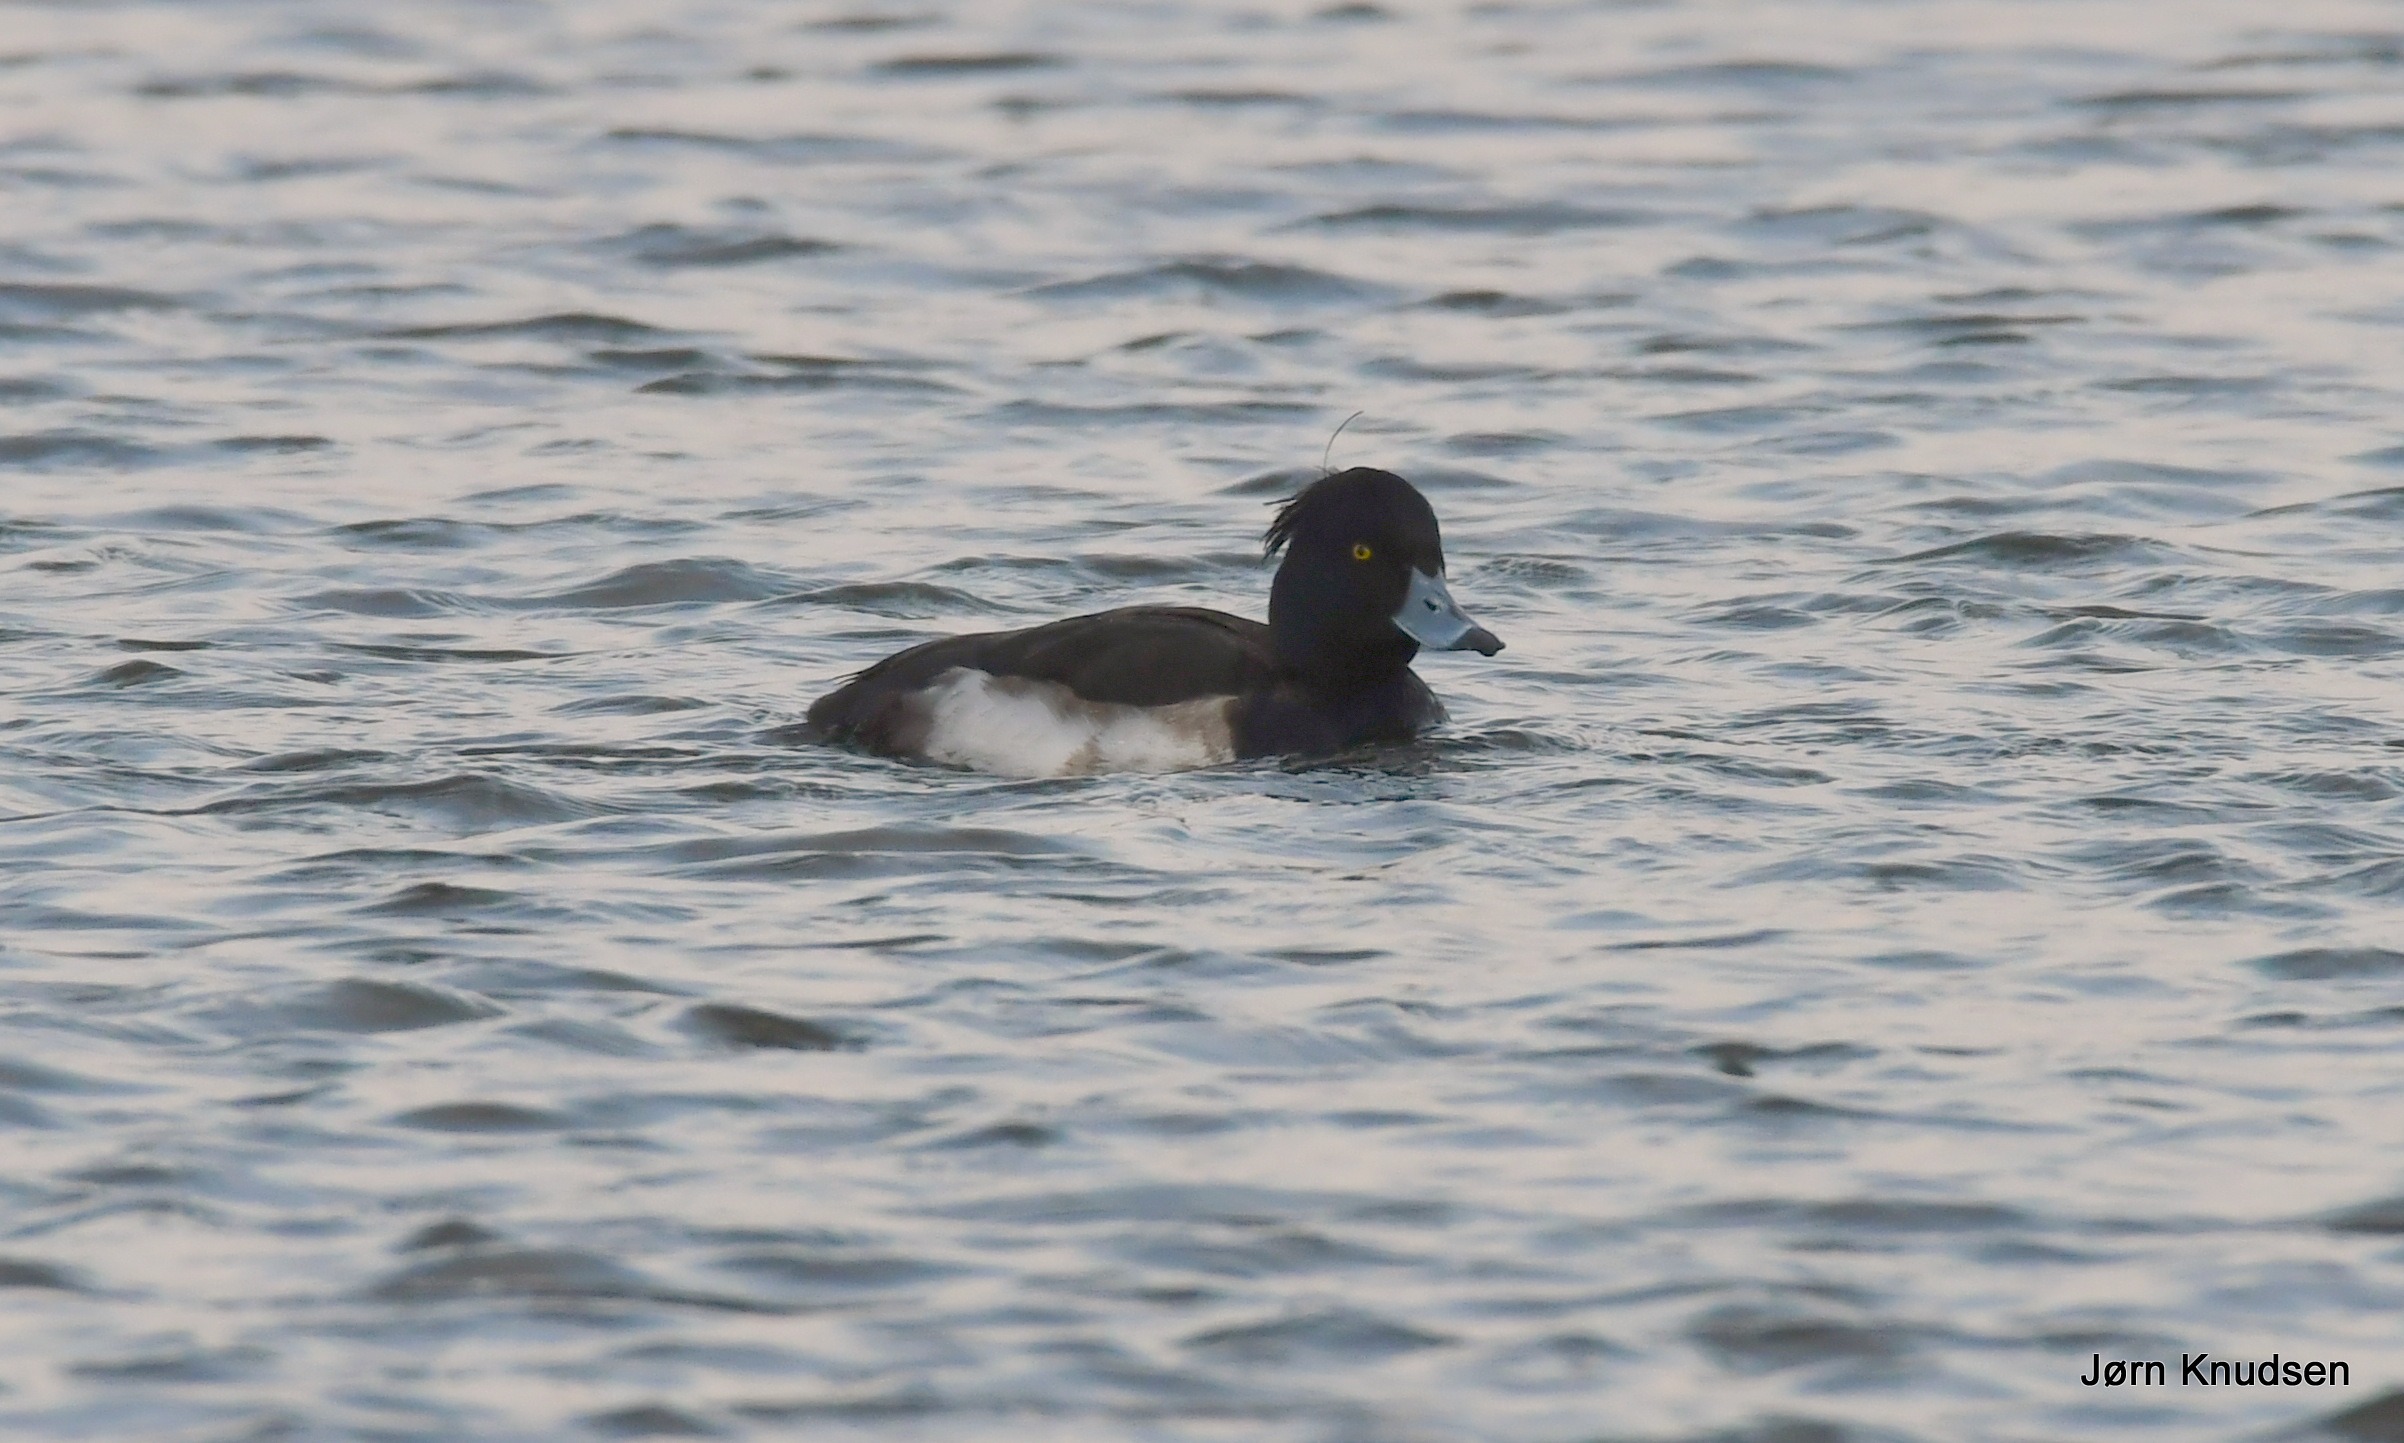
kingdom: Animalia
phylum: Chordata
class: Aves
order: Anseriformes
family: Anatidae
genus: Aythya
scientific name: Aythya fuligula
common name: Troldand
